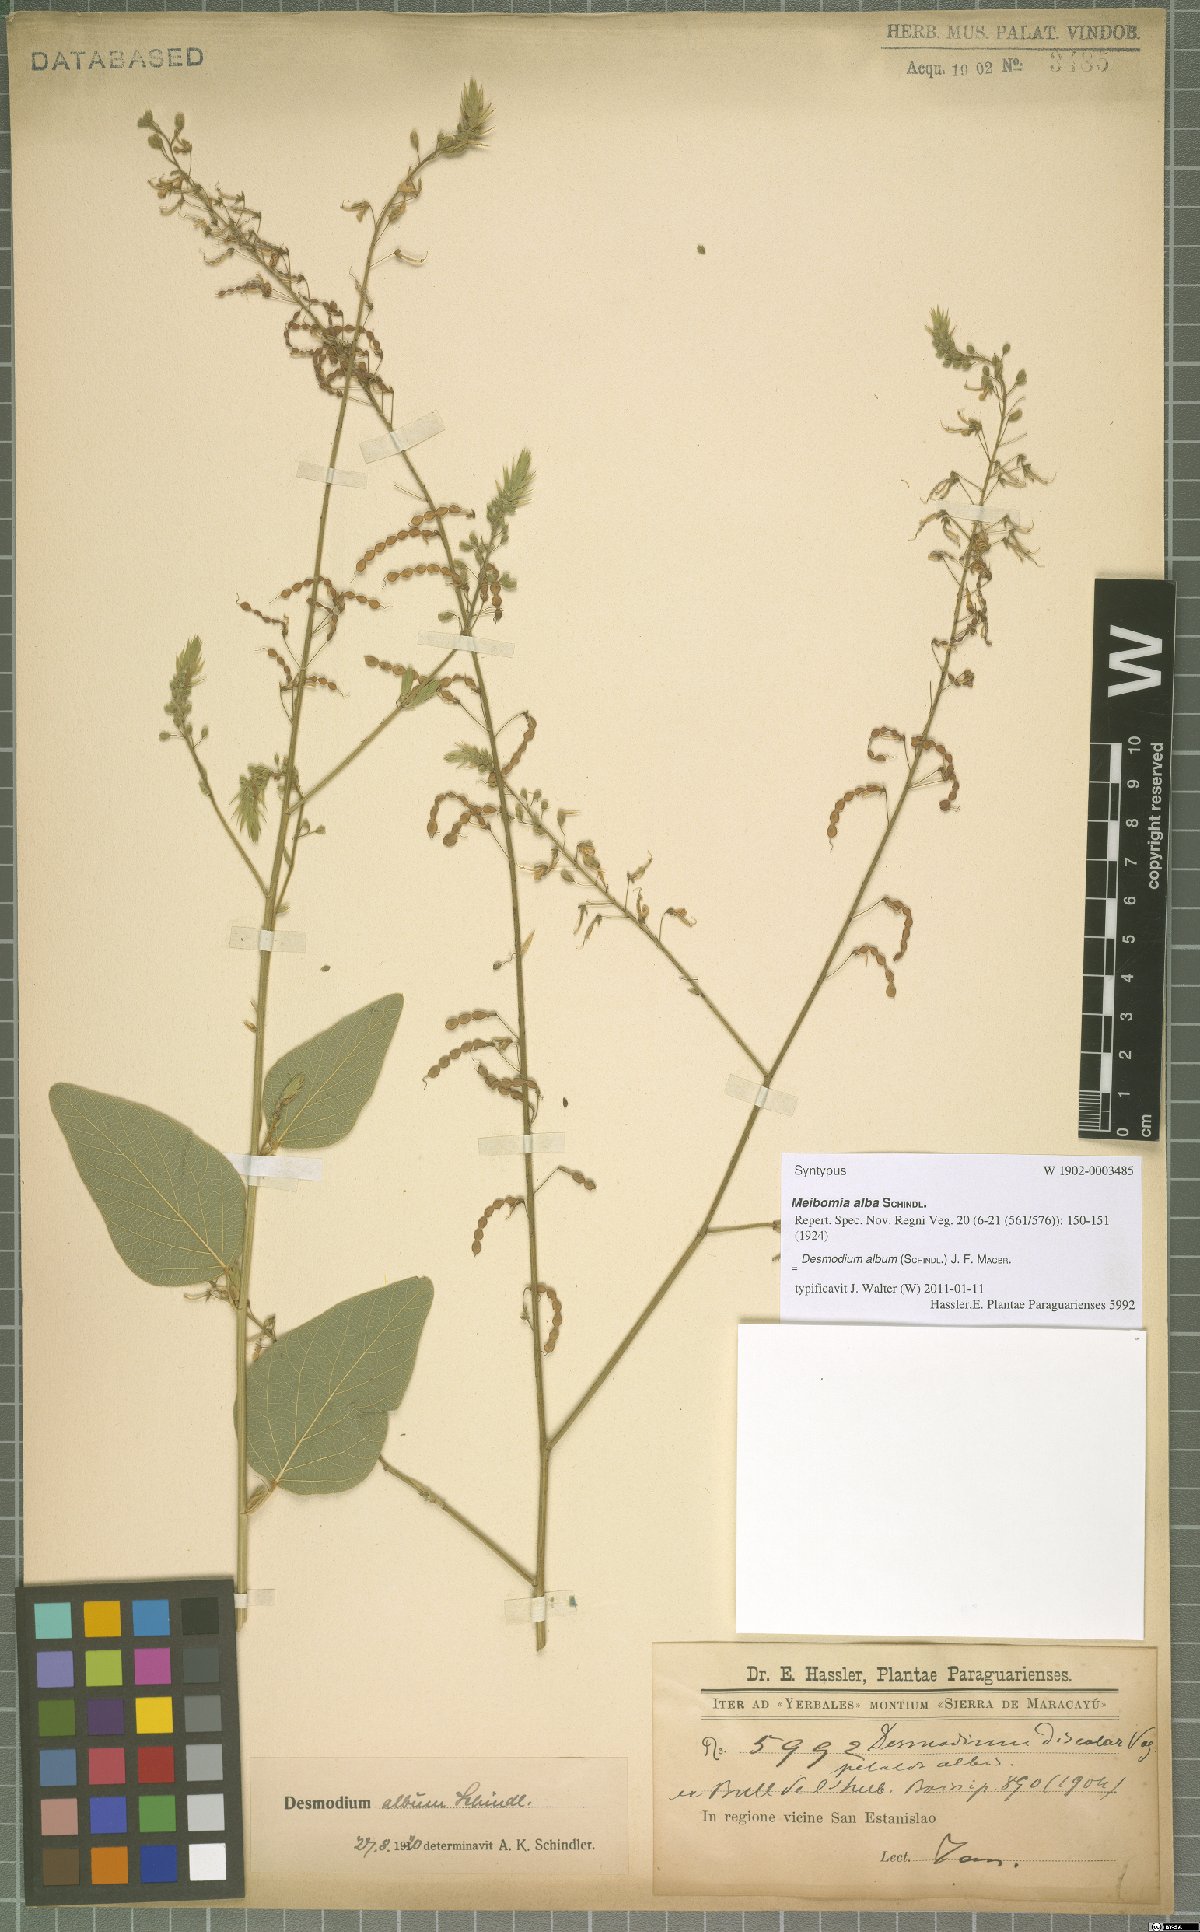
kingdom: Plantae
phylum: Tracheophyta
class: Magnoliopsida
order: Fabales
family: Fabaceae
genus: Desmodium
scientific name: Desmodium album
